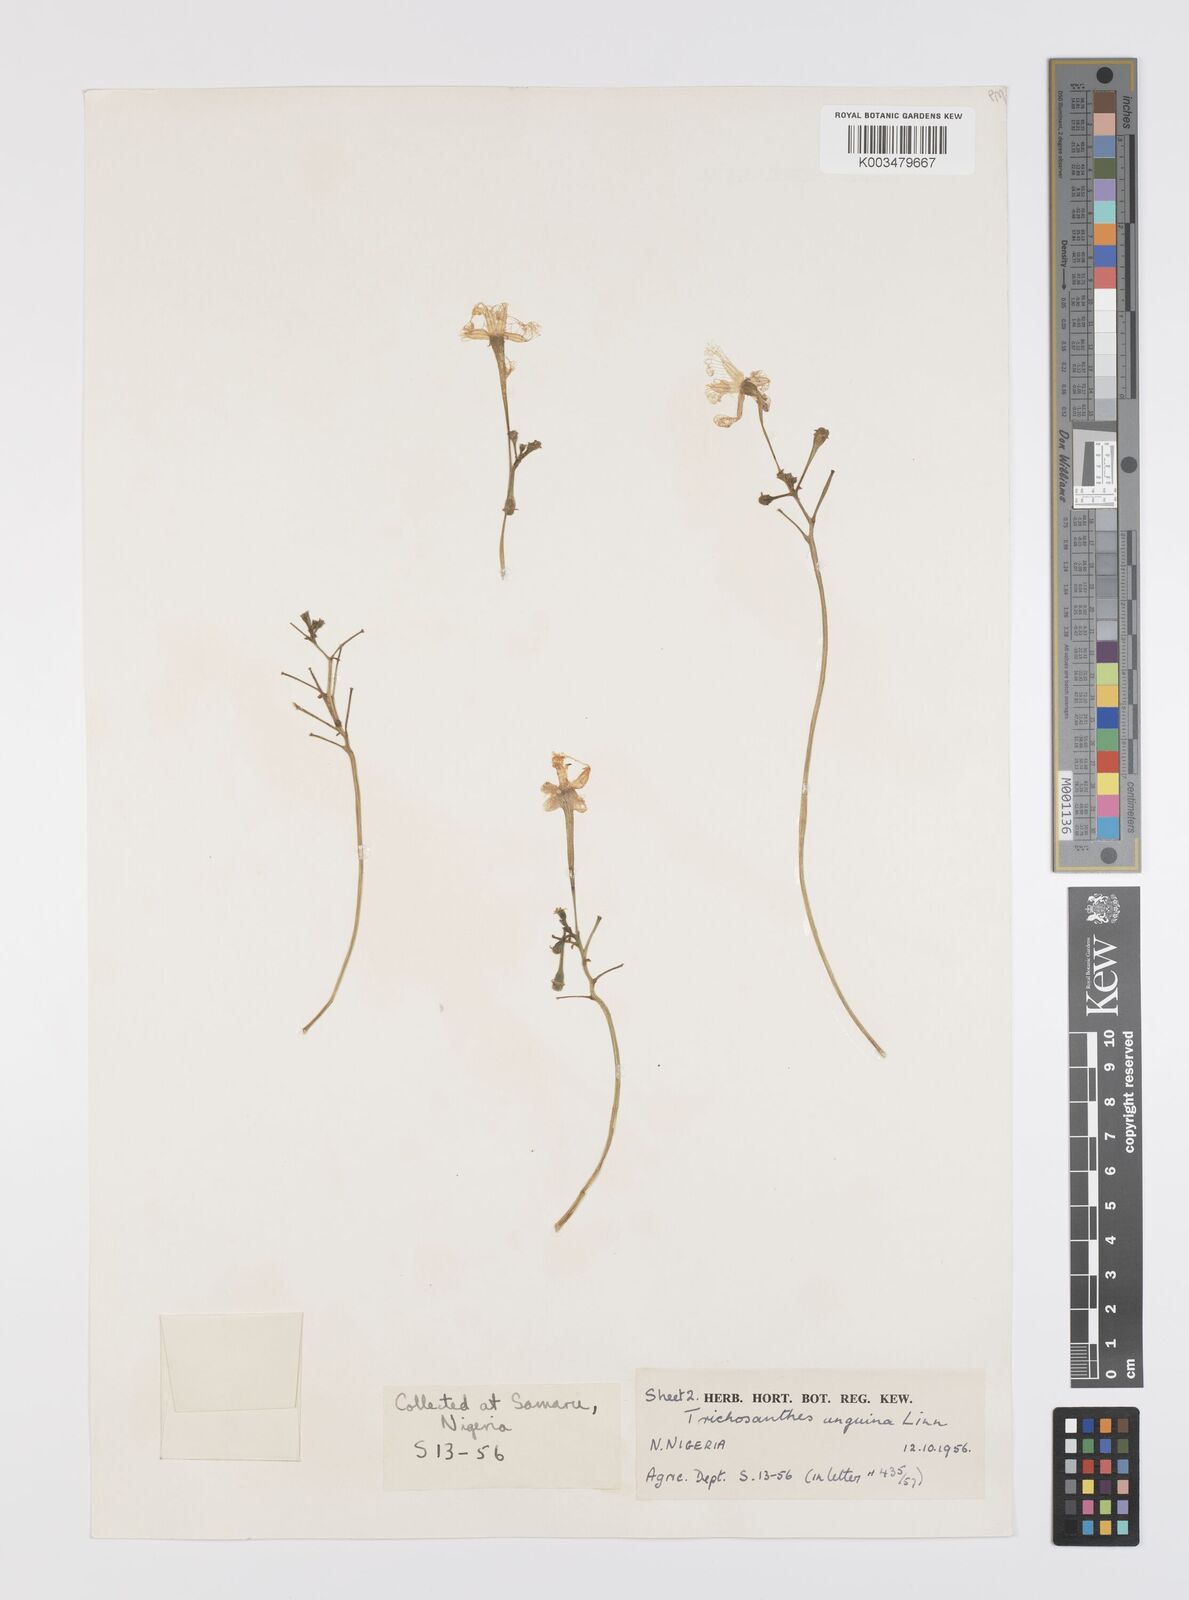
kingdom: Plantae
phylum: Tracheophyta
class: Magnoliopsida
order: Cucurbitales
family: Cucurbitaceae
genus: Trichosanthes
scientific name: Trichosanthes cucumerina
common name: Snakegourd
